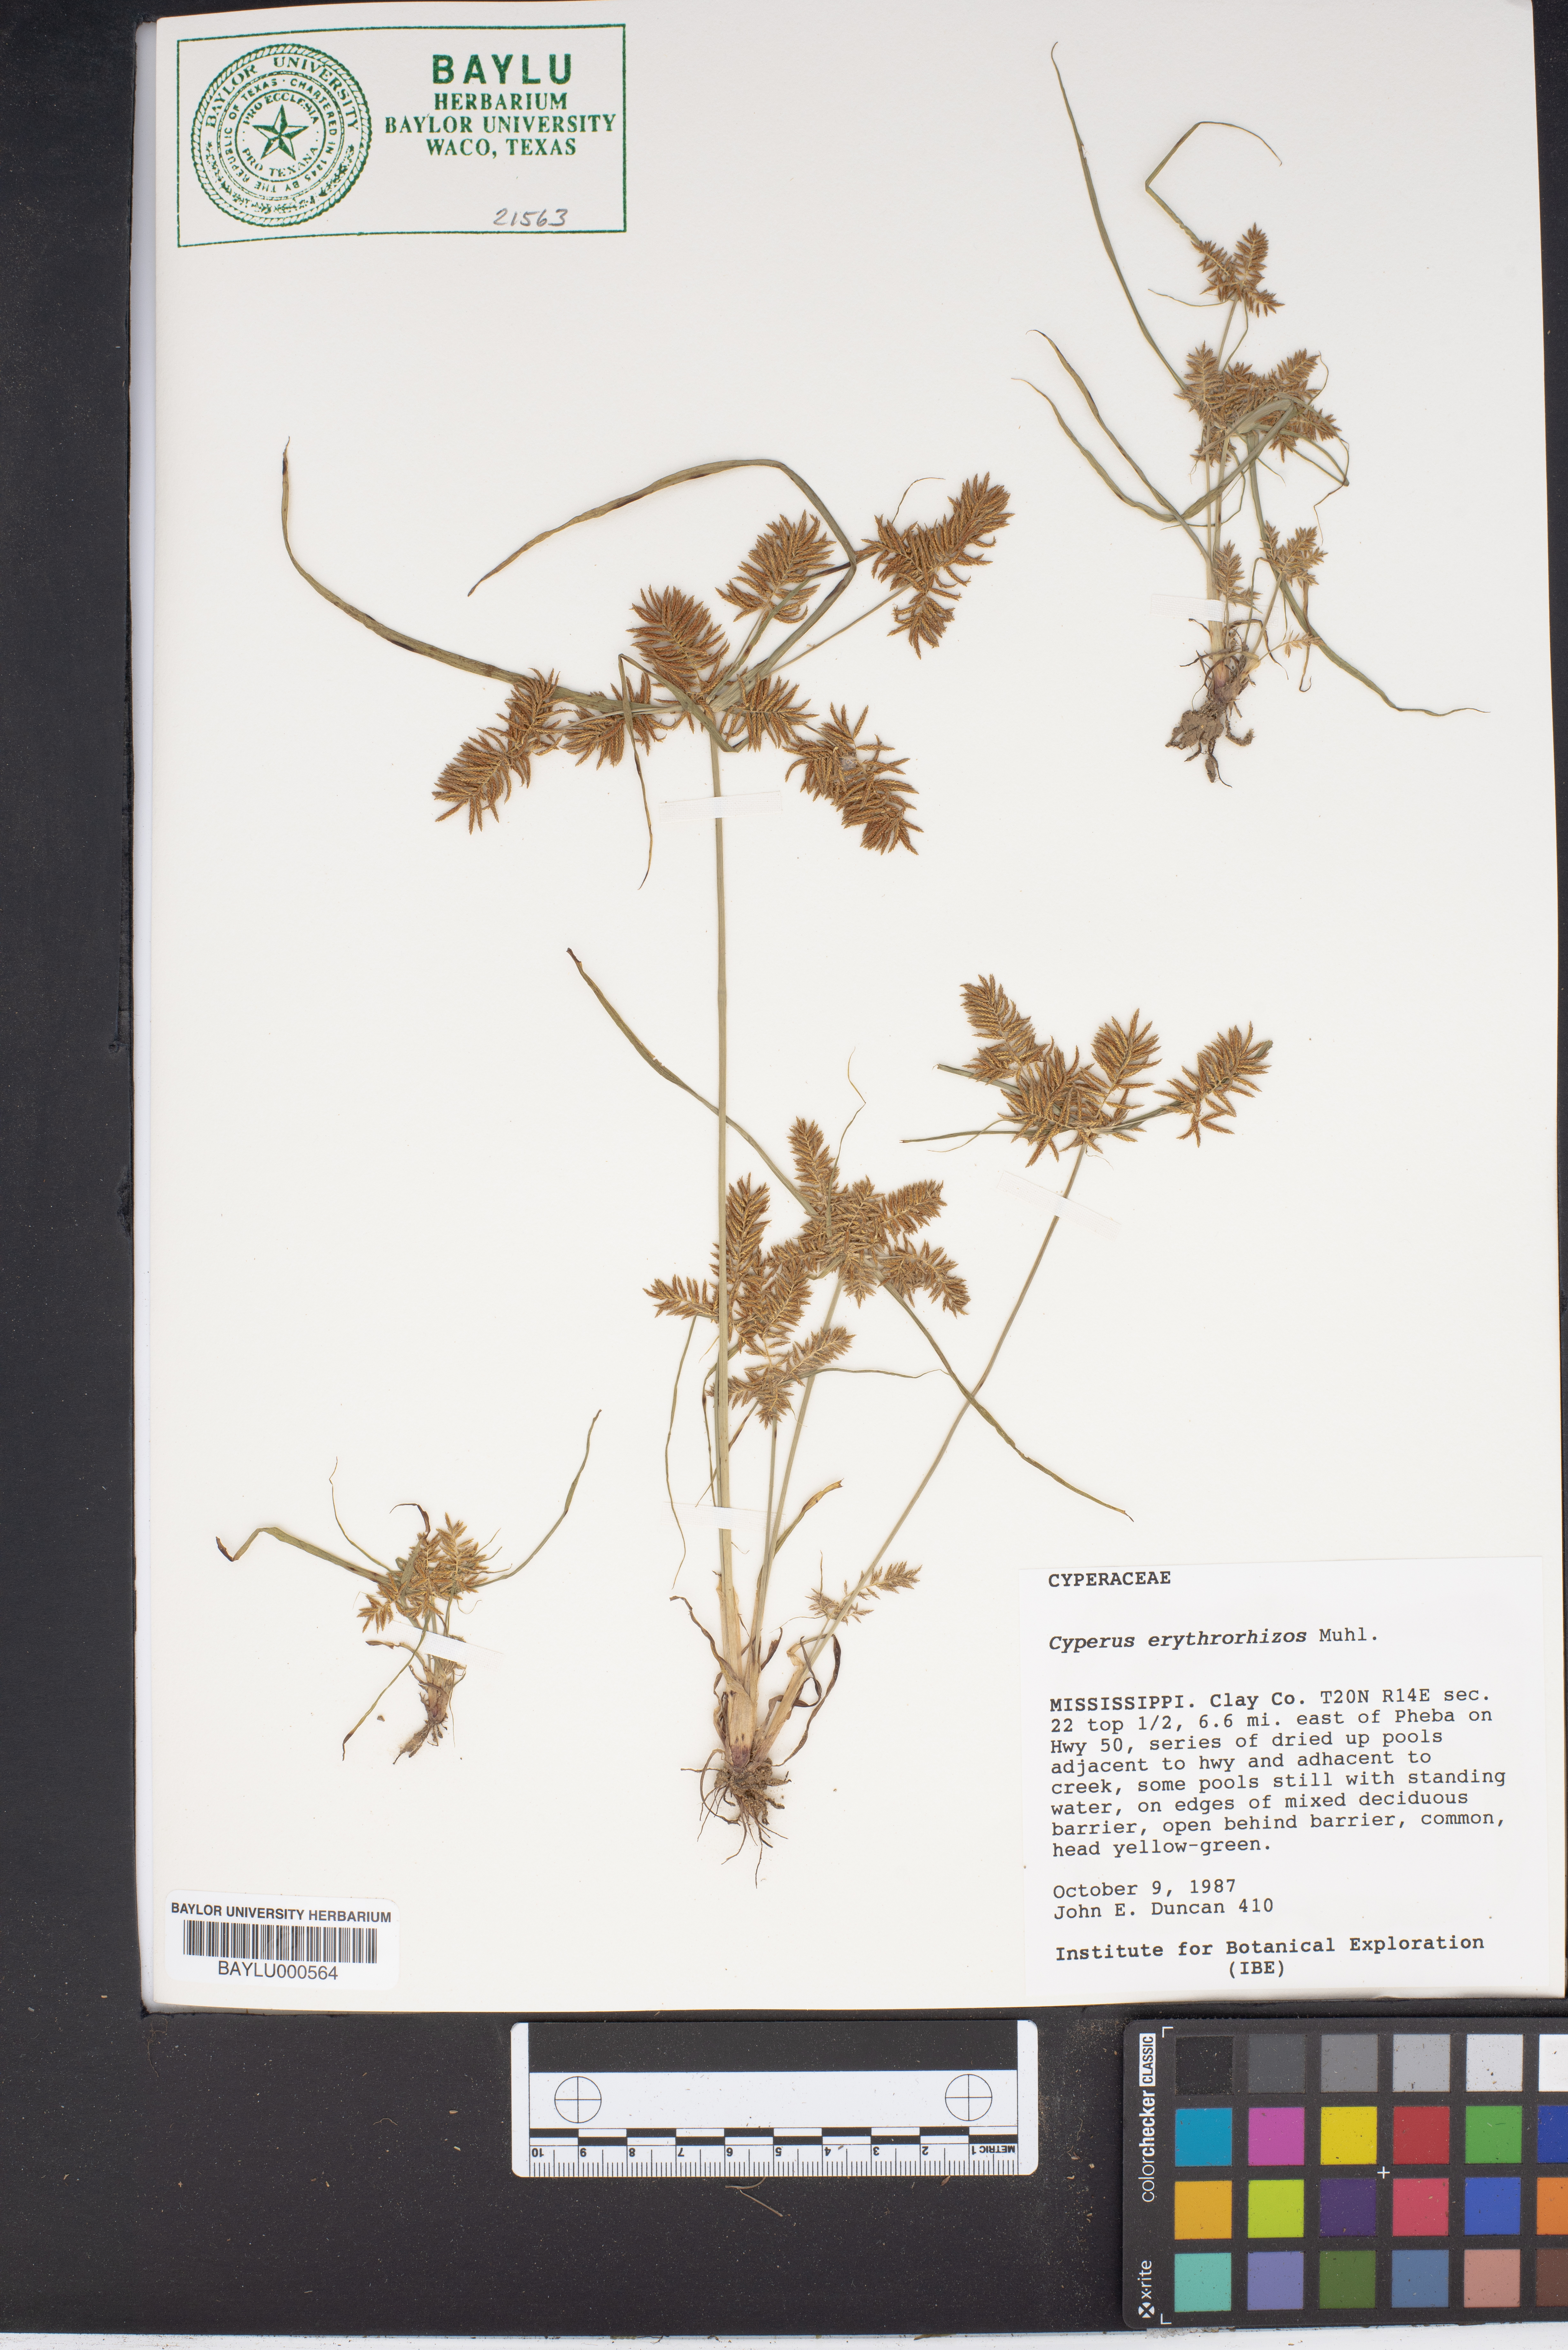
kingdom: Plantae
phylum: Tracheophyta
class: Liliopsida
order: Poales
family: Cyperaceae
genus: Cyperus
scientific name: Cyperus erythrorhizos
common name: Red-root flat sedge
